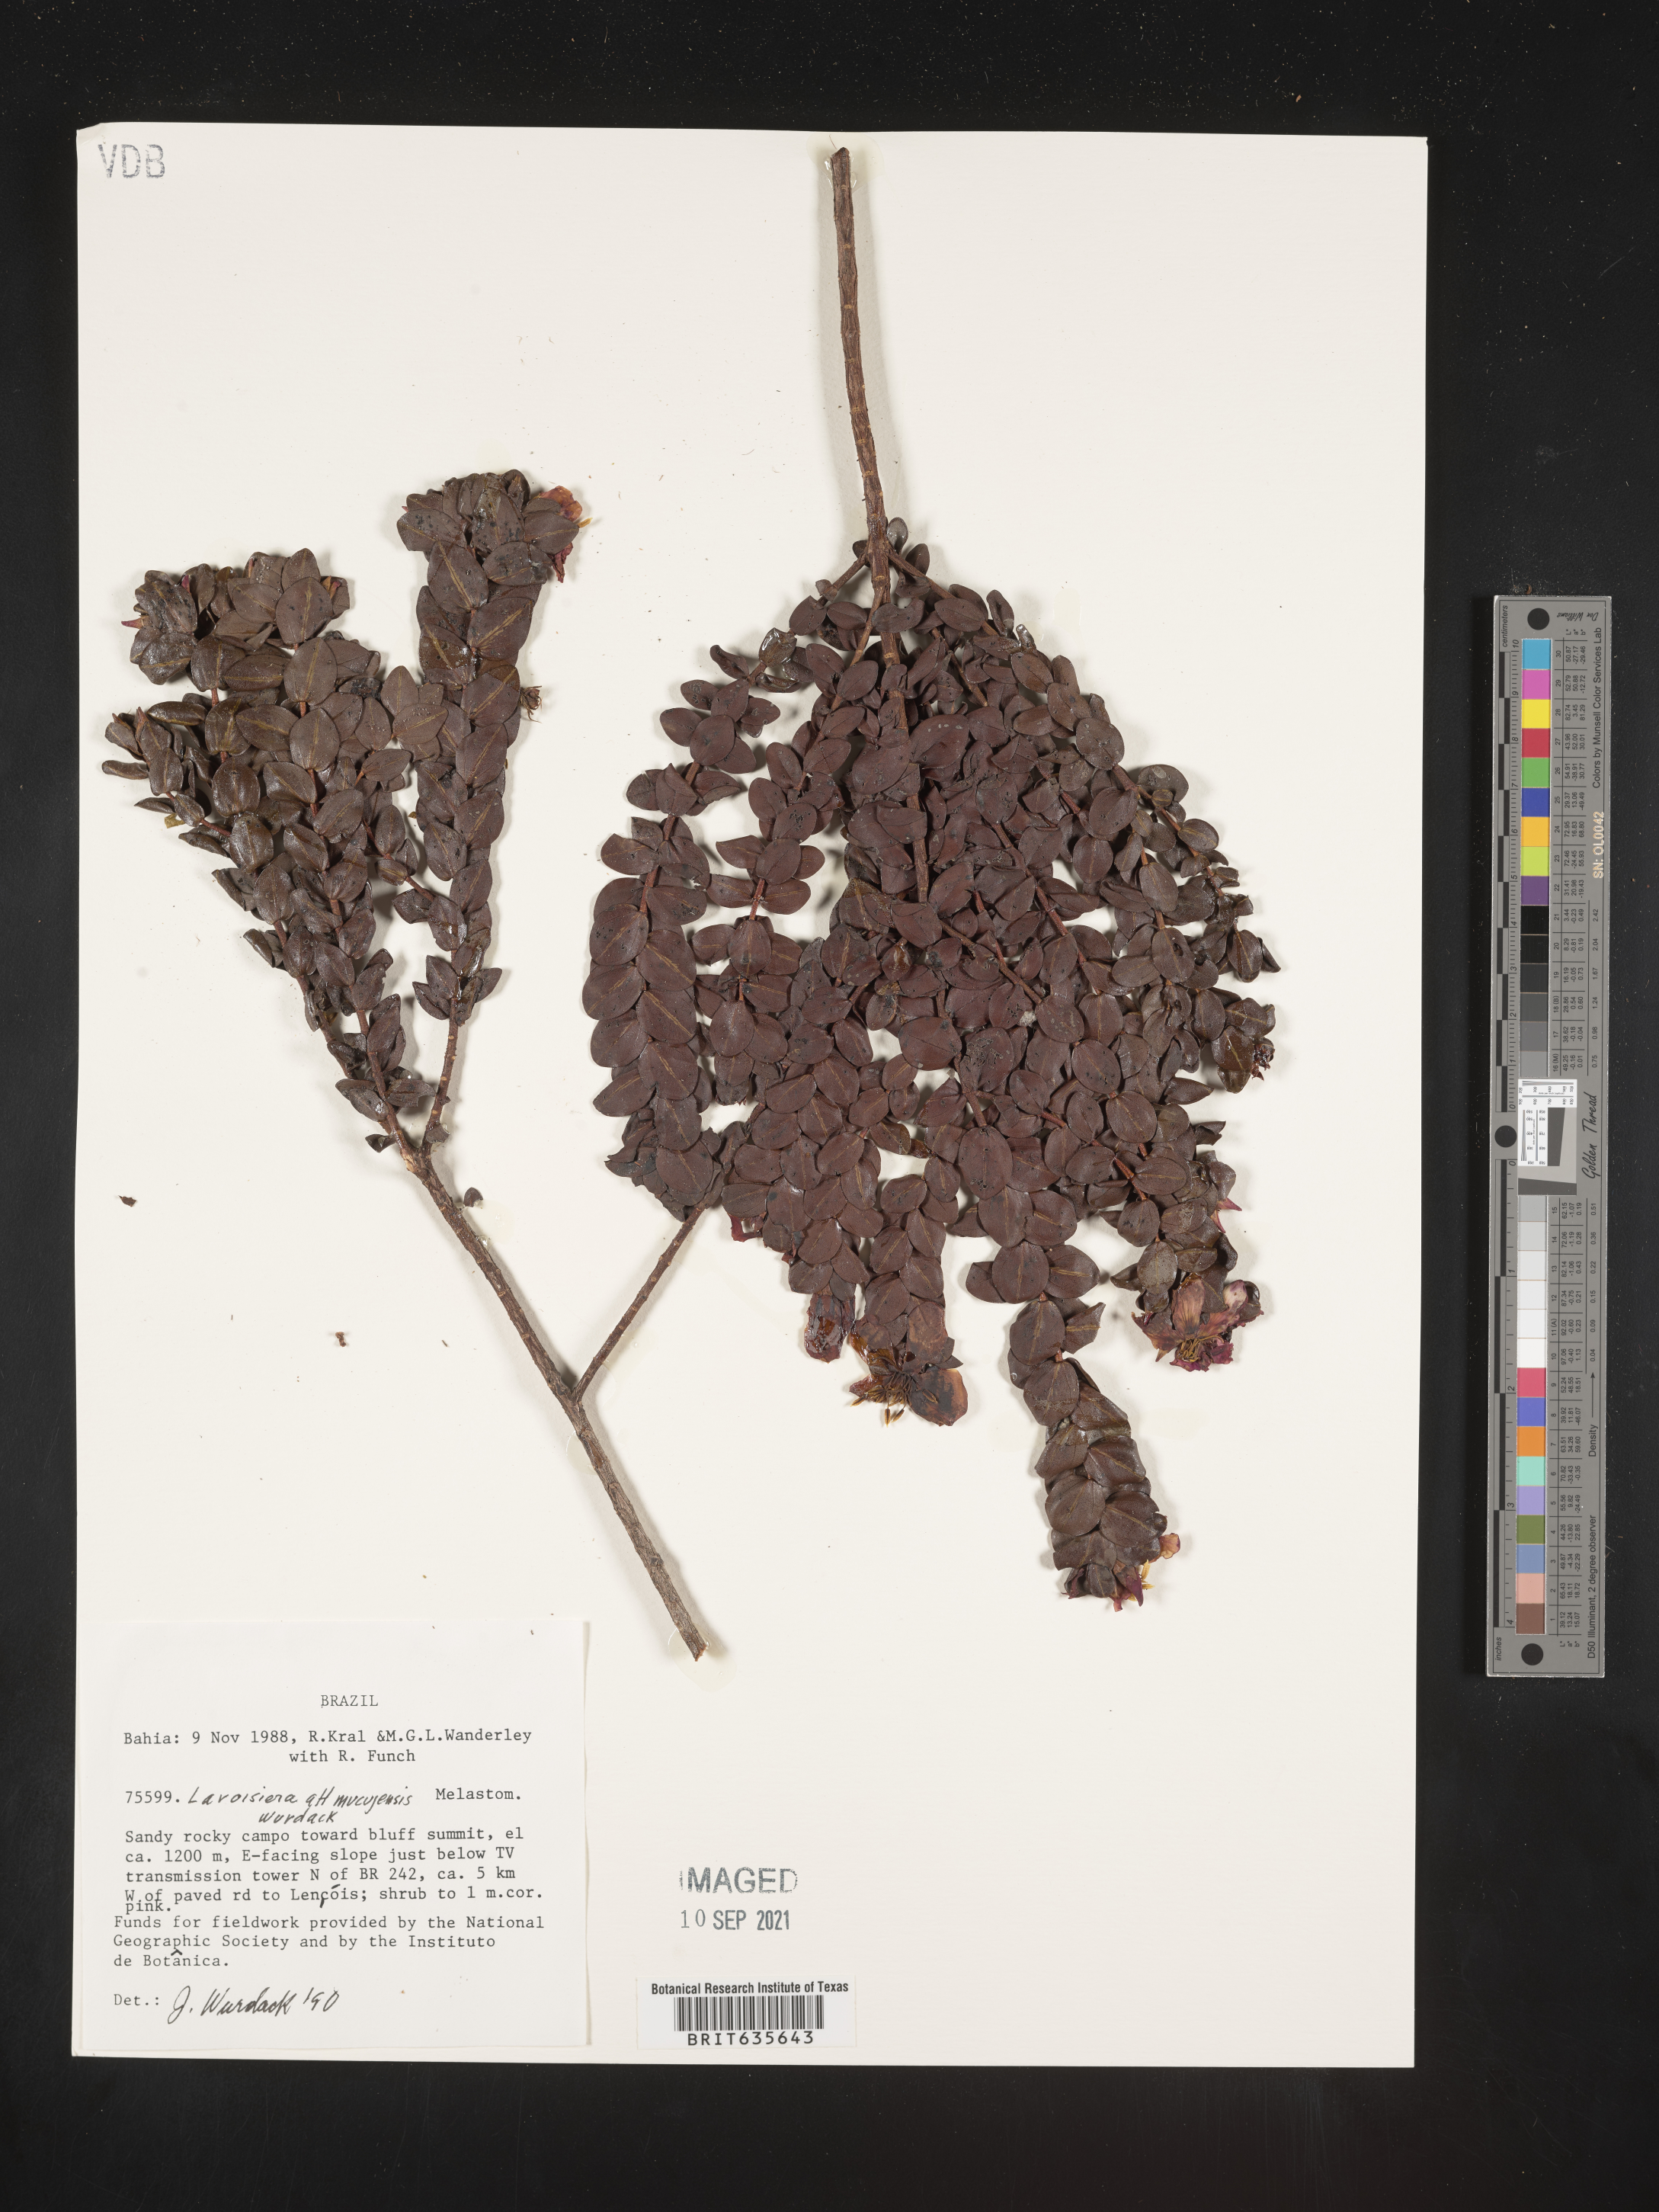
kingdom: Plantae
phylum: Tracheophyta
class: Magnoliopsida
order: Myrtales
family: Melastomataceae
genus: Microlicia
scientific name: Microlicia
